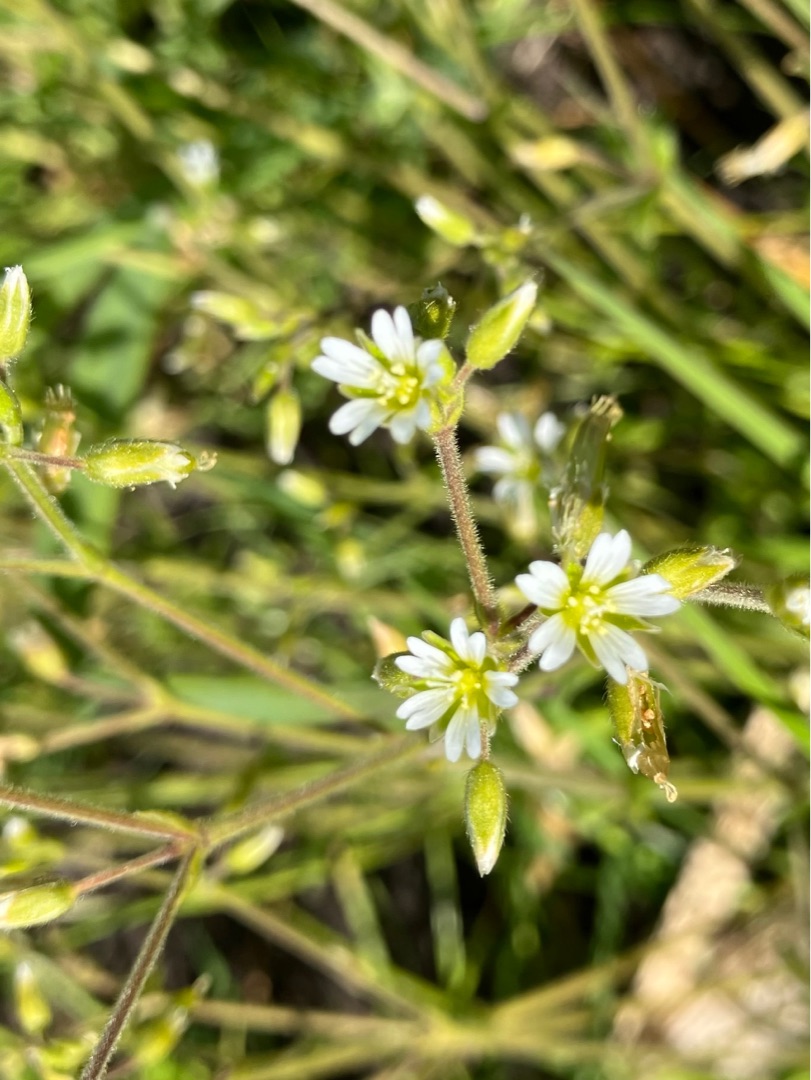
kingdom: Plantae
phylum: Tracheophyta
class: Magnoliopsida
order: Caryophyllales
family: Caryophyllaceae
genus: Cerastium
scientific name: Cerastium fontanum
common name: Almindelig hønsetarm
